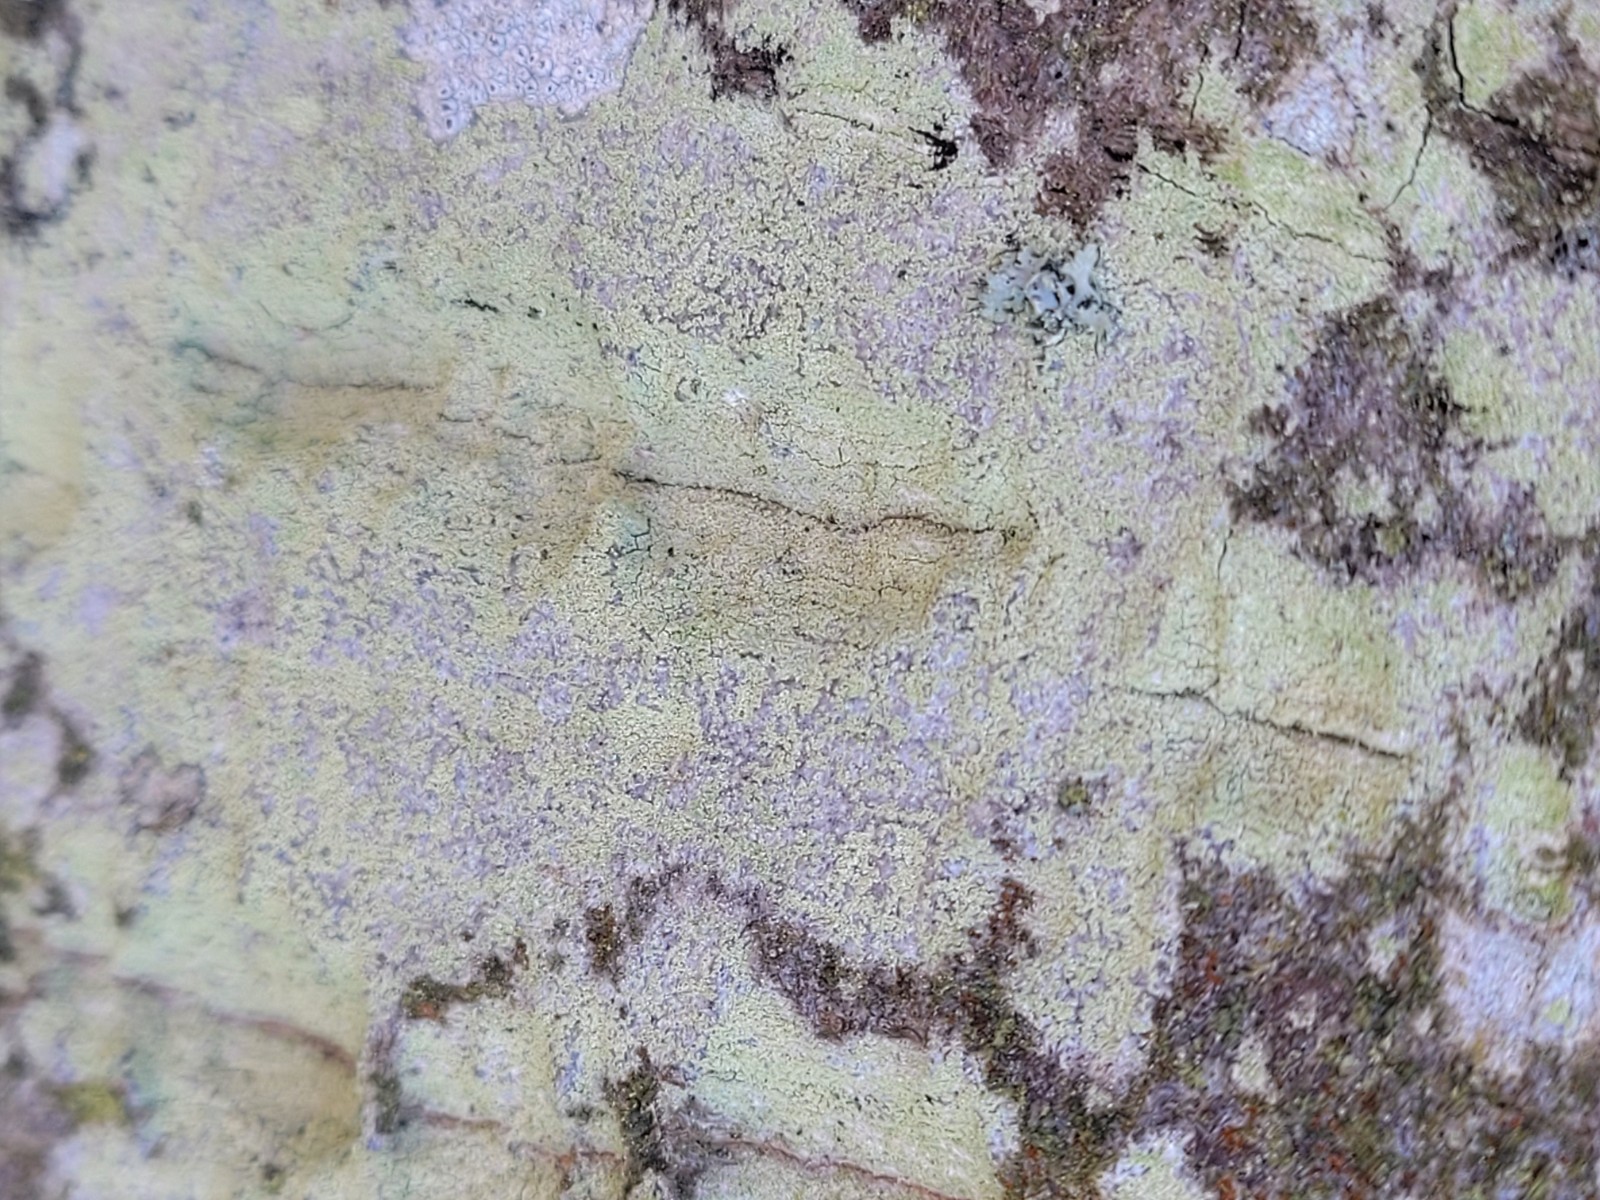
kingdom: Fungi
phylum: Ascomycota
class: Lecanoromycetes
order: Lecanorales
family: Lecanoraceae
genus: Lecanora
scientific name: Lecanora expallens
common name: bleggul kantskivelav
